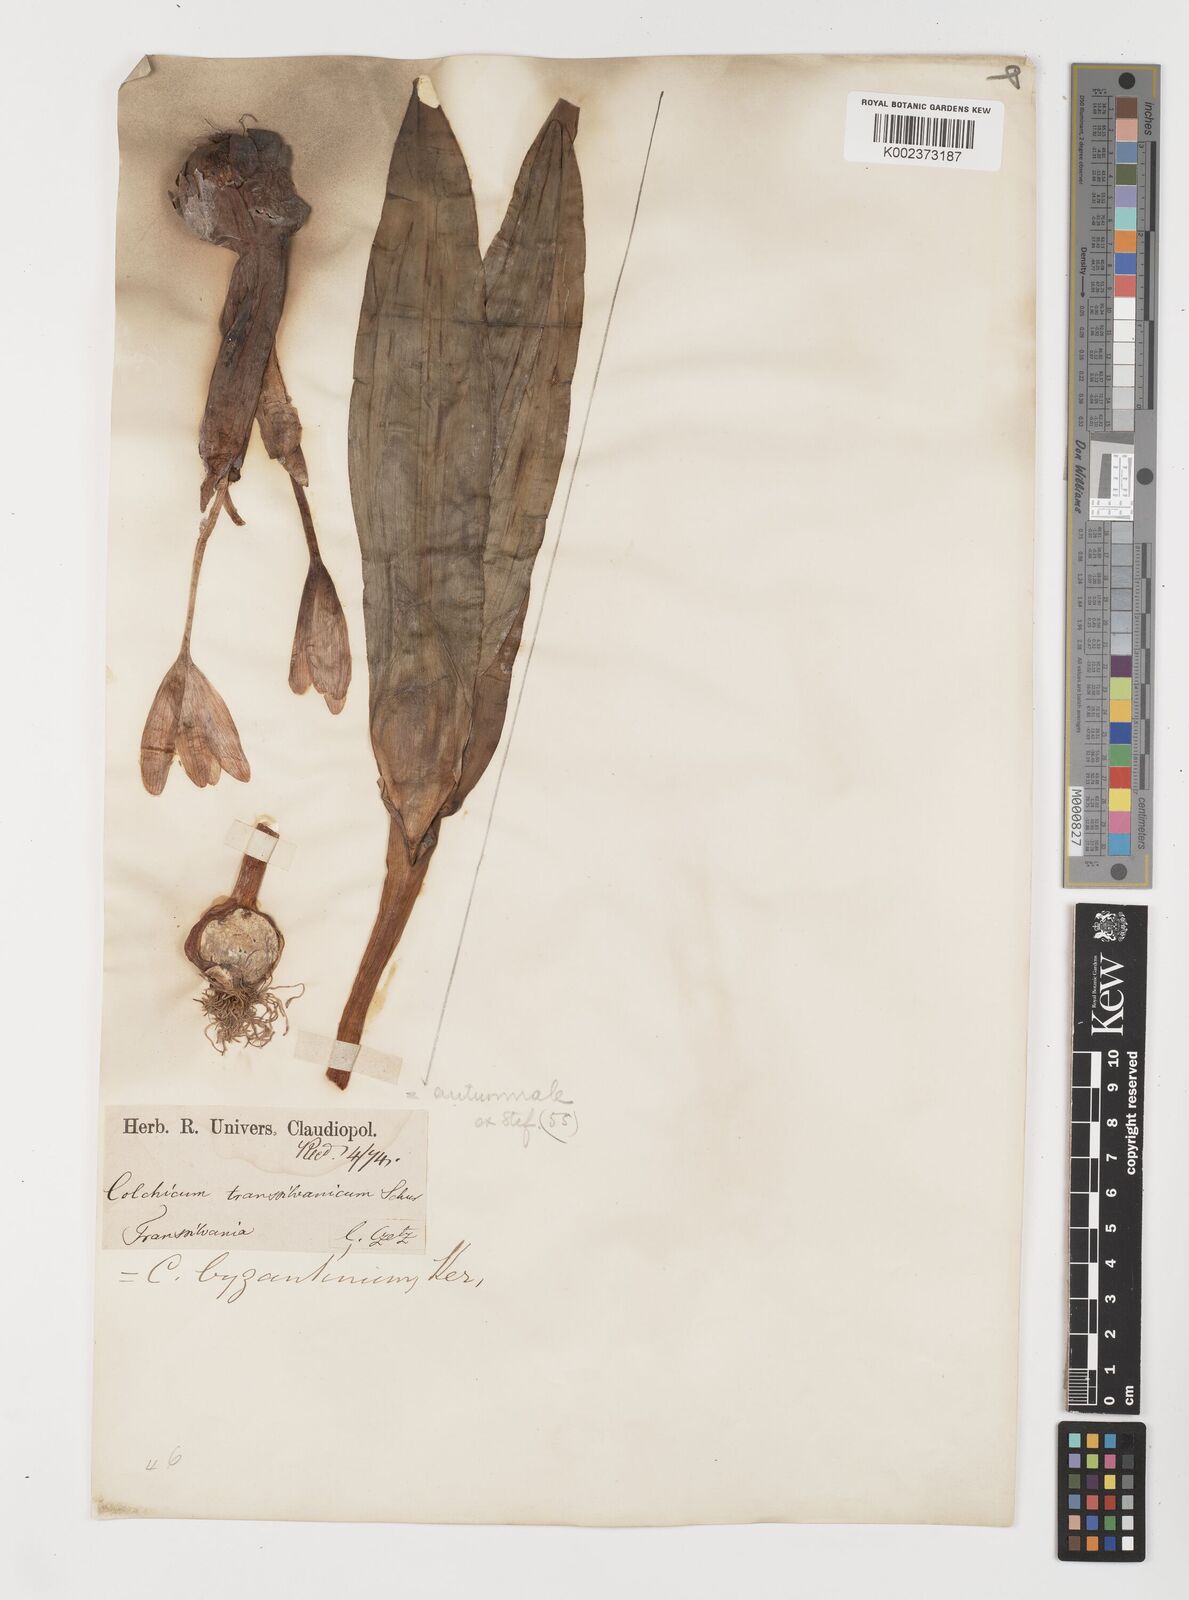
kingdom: Plantae
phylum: Tracheophyta
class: Liliopsida
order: Liliales
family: Colchicaceae
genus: Colchicum
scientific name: Colchicum autumnale
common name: Autumn crocus
